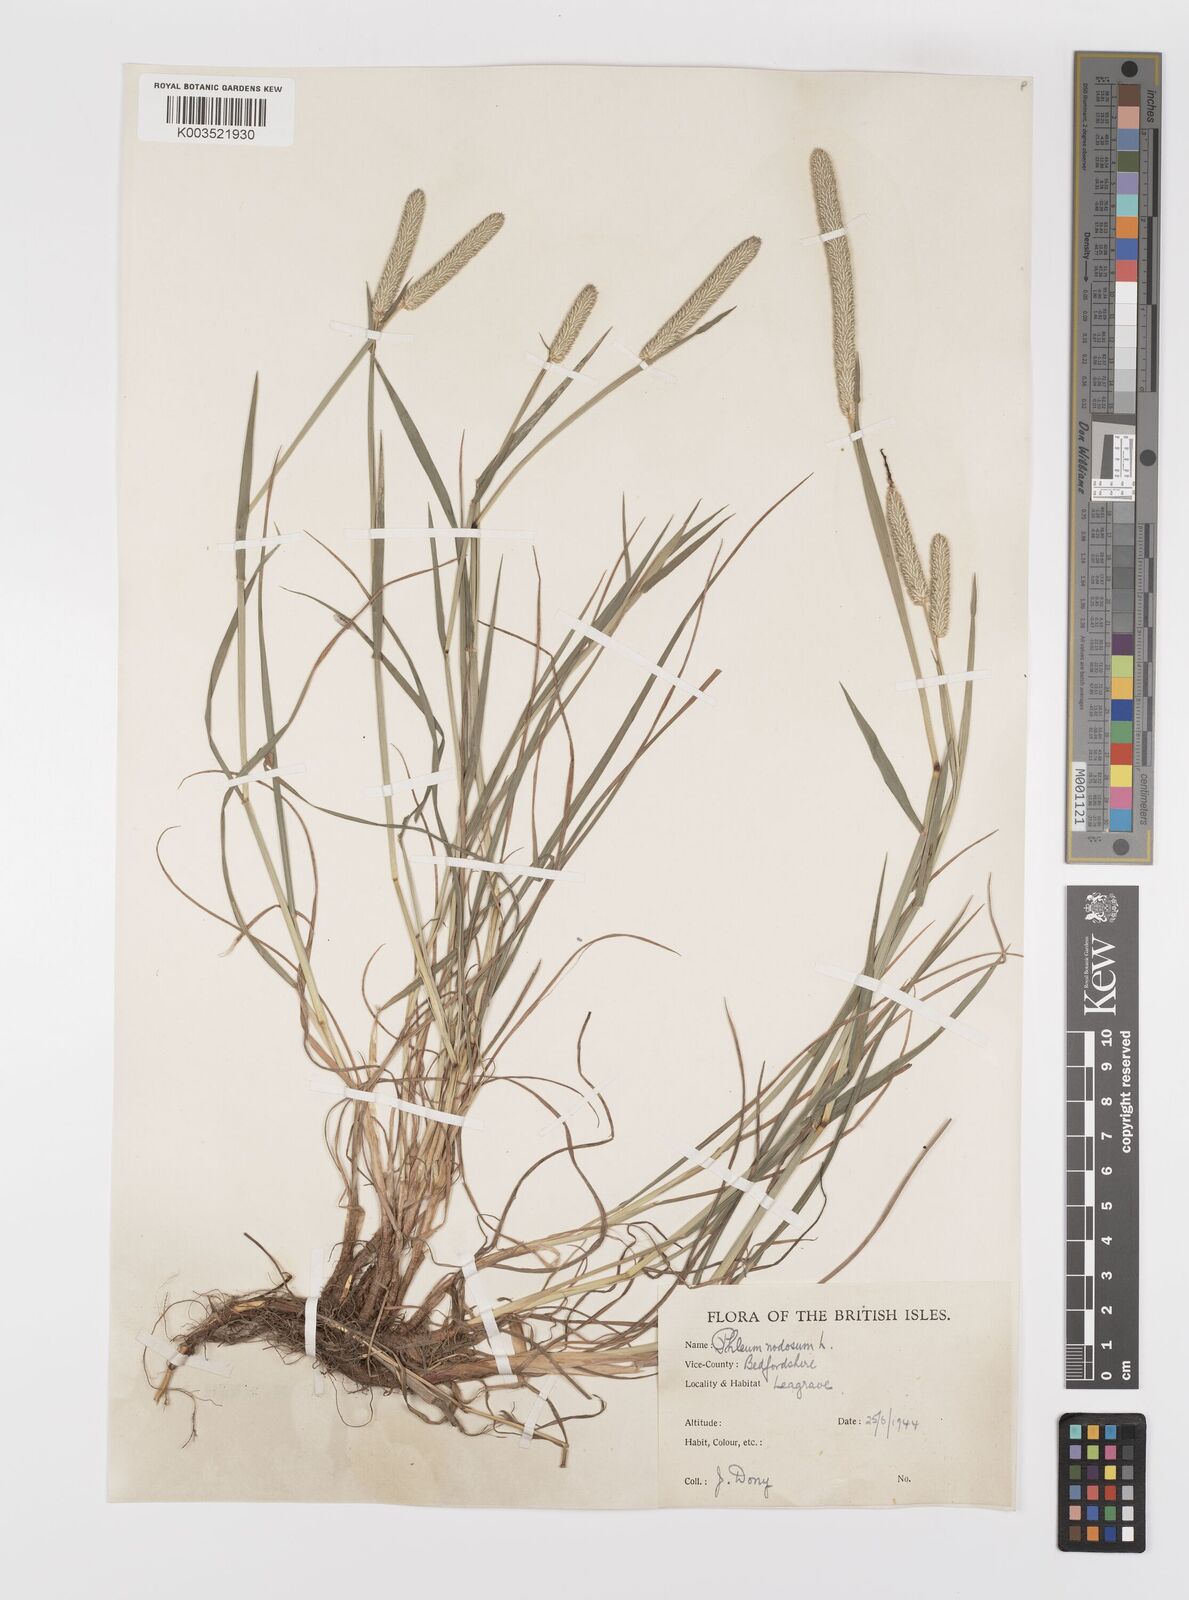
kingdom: Plantae
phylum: Tracheophyta
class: Liliopsida
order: Poales
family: Poaceae
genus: Phleum
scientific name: Phleum bertolonii
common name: Smaller cat's-tail
